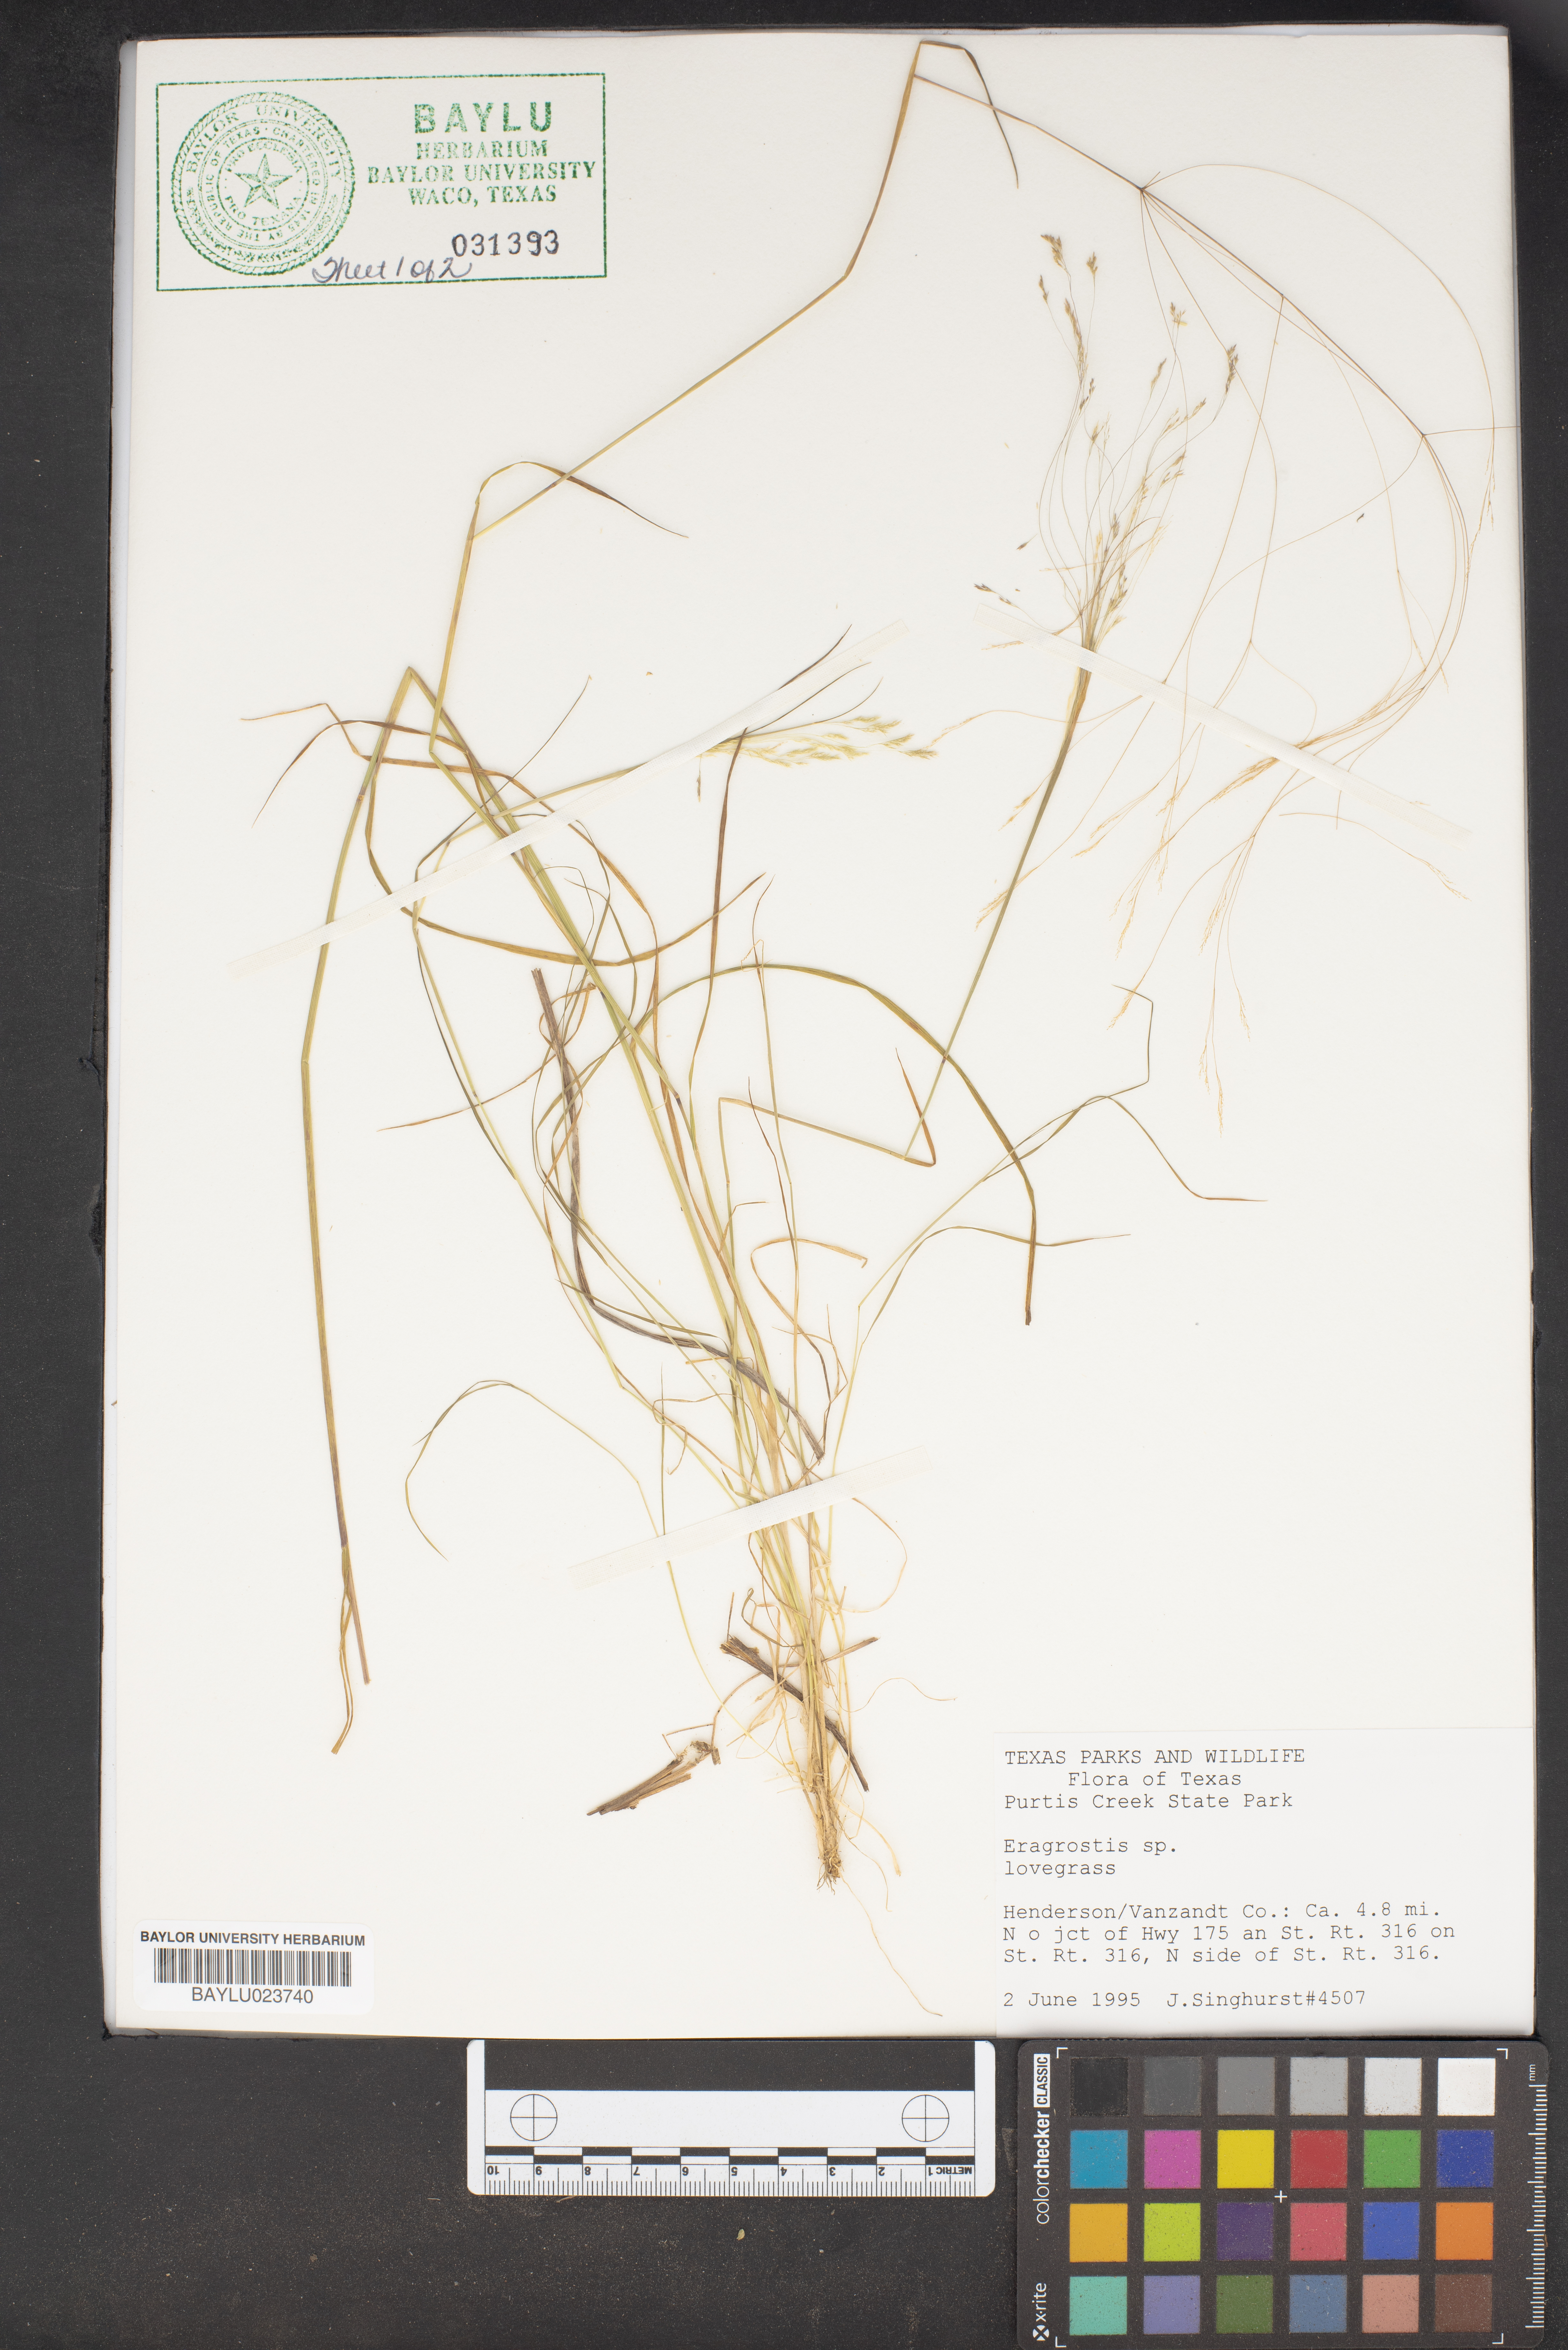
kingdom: Plantae
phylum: Tracheophyta
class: Liliopsida
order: Poales
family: Poaceae
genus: Eragrostis
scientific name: Eragrostis
